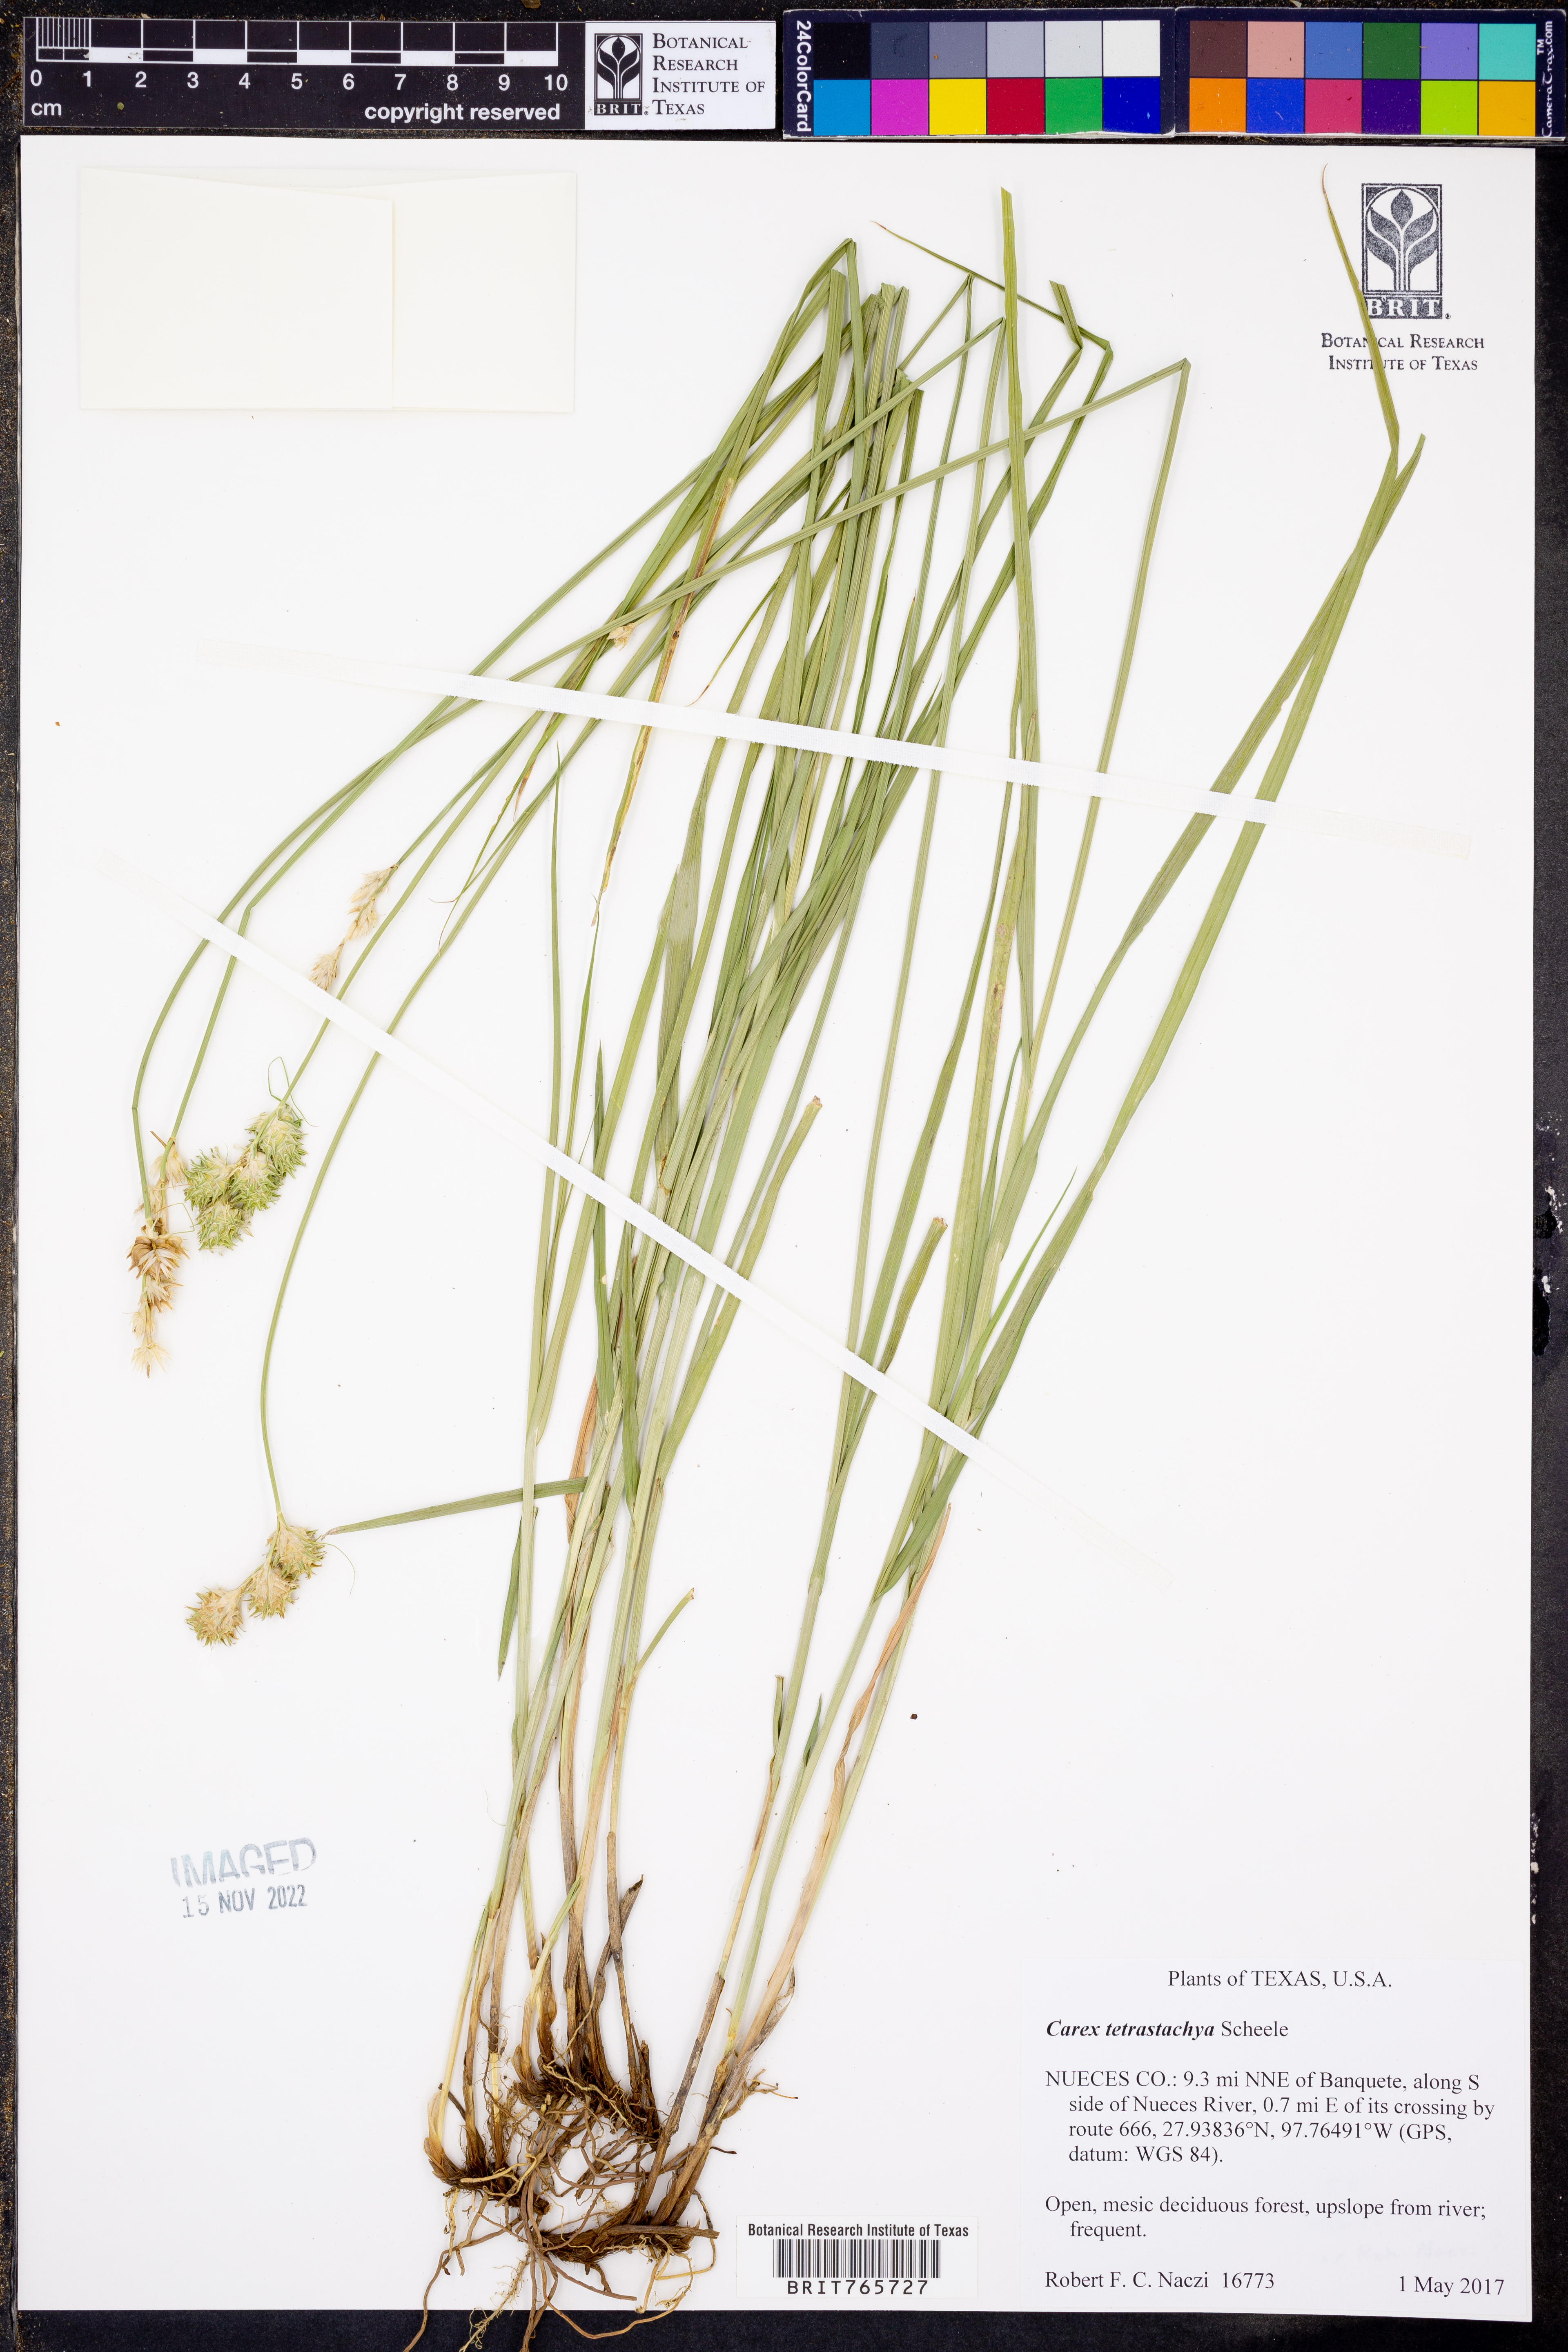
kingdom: Plantae
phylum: Tracheophyta
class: Liliopsida
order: Poales
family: Cyperaceae
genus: Carex
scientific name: Carex tetrastachya
